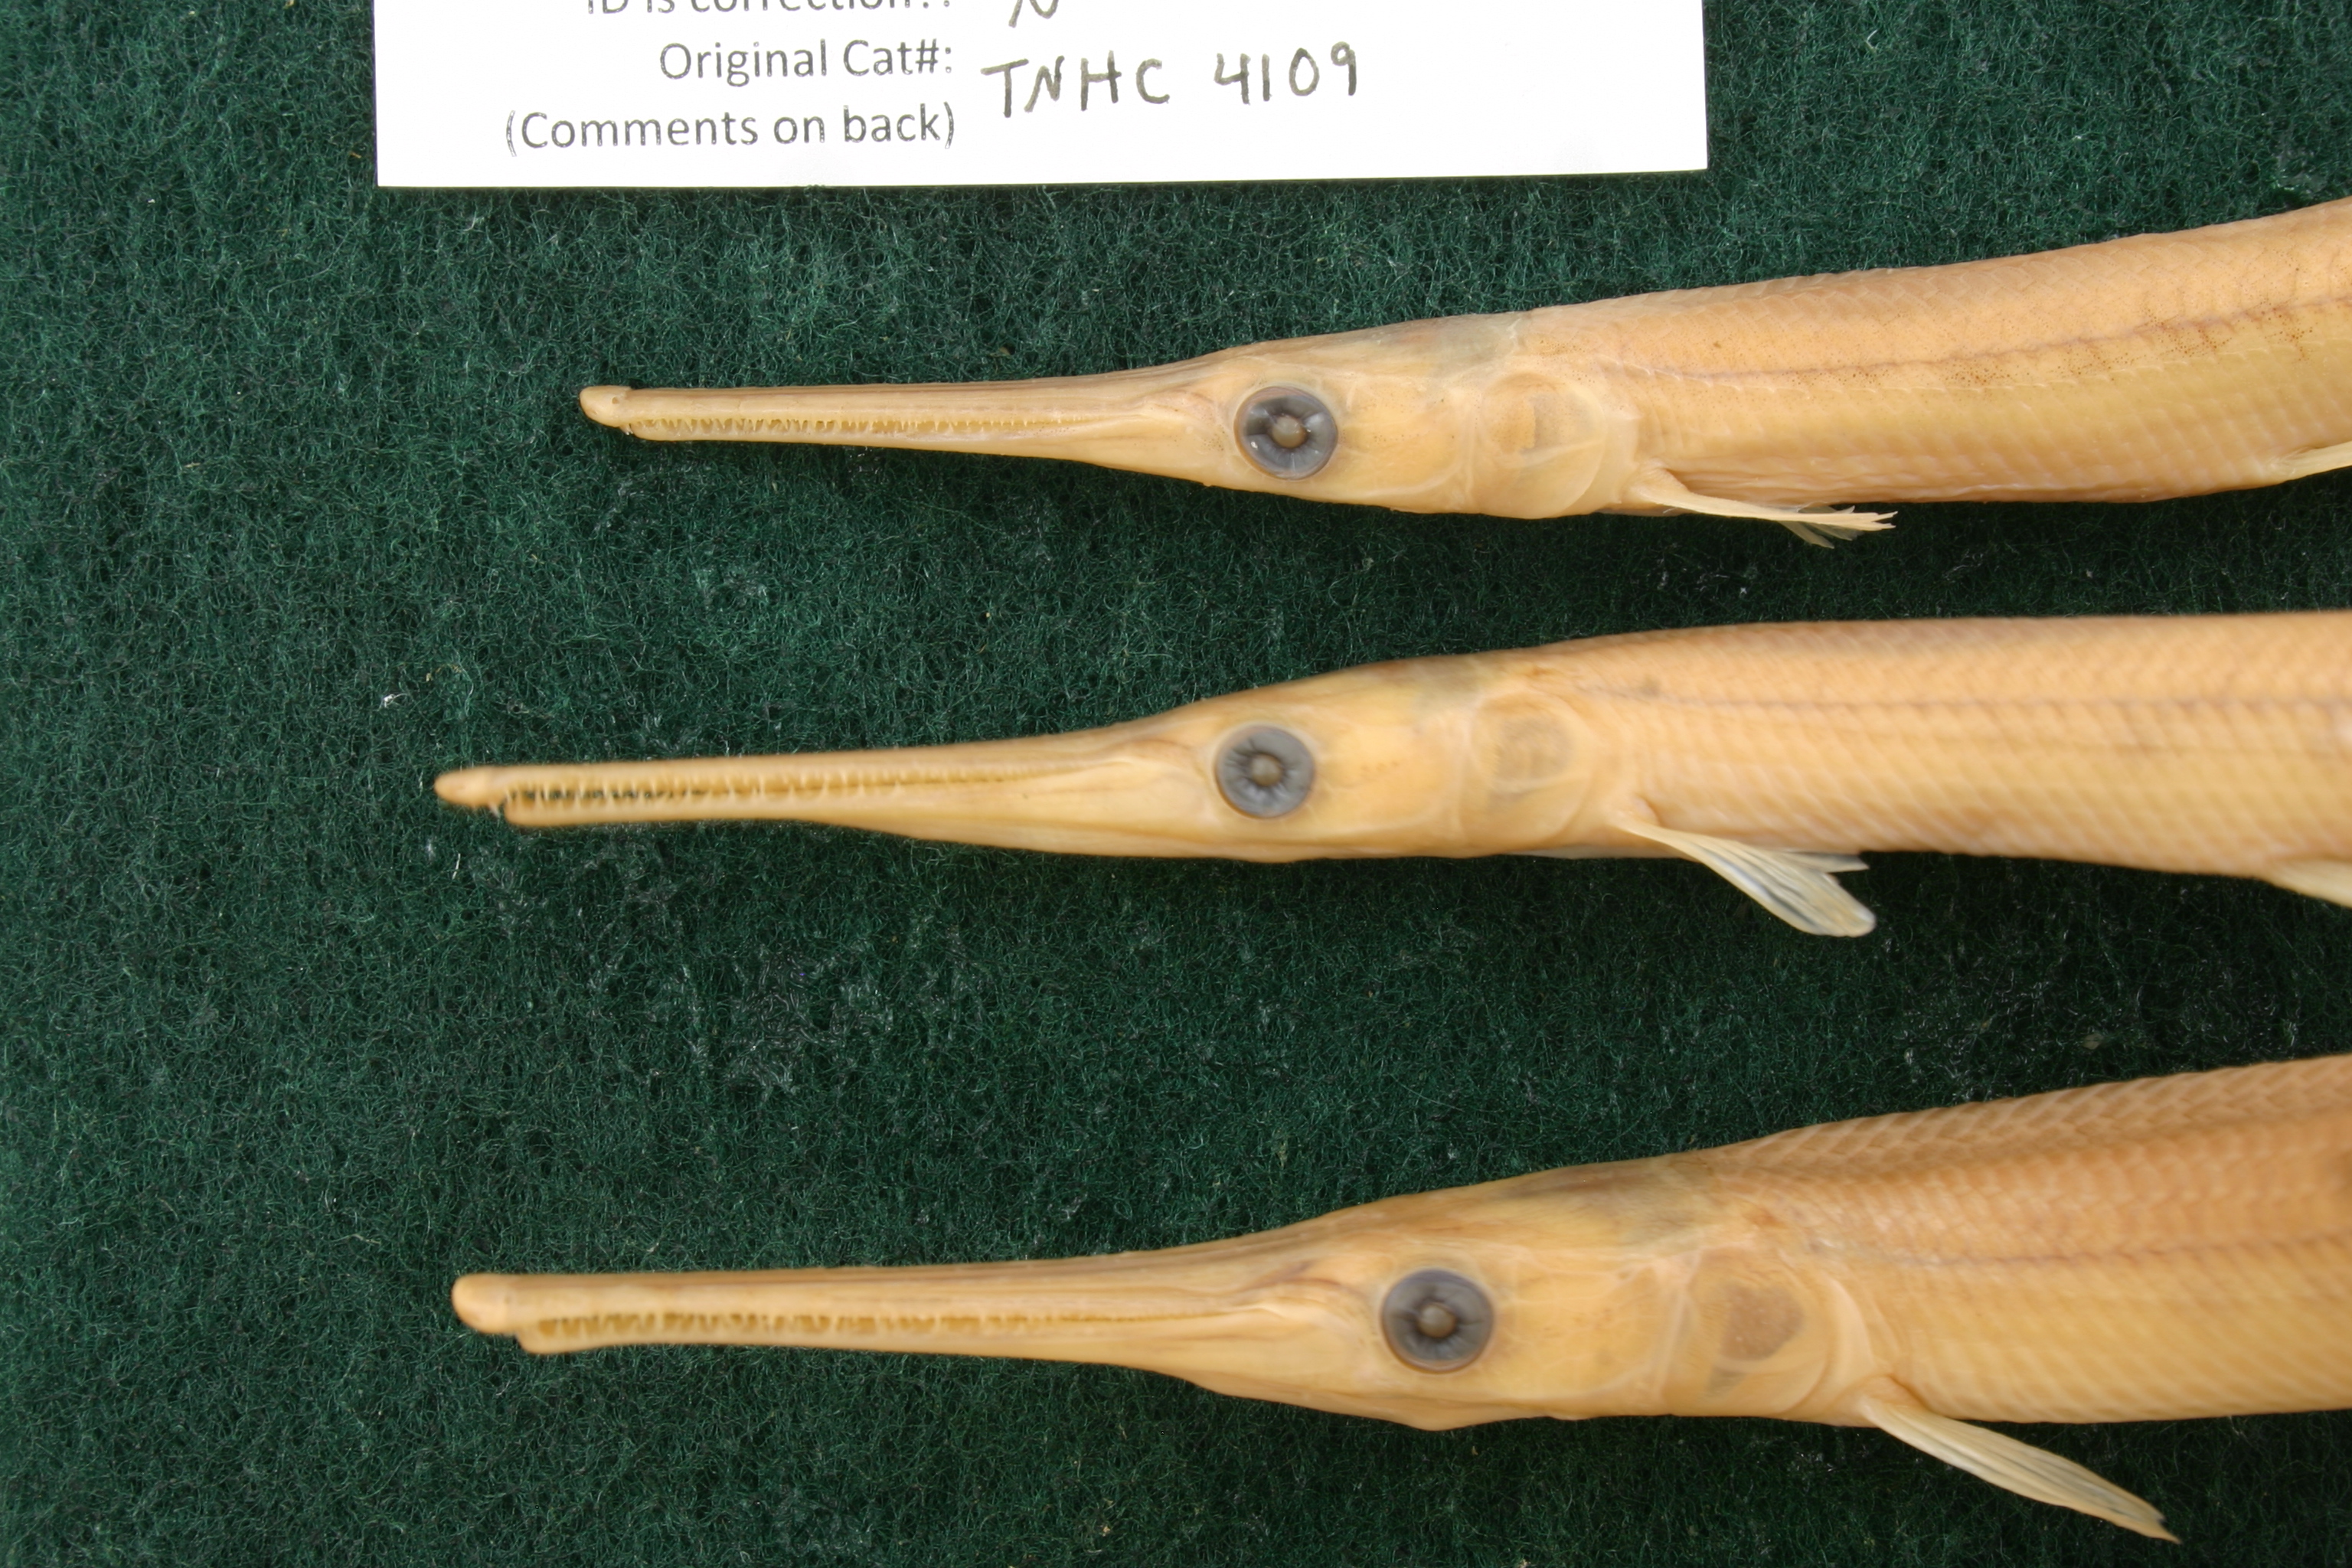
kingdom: Animalia
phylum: Chordata
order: Lepisosteiformes
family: Lepisosteidae
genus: Lepisosteus
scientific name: Lepisosteus osseus
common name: Longnose gar
